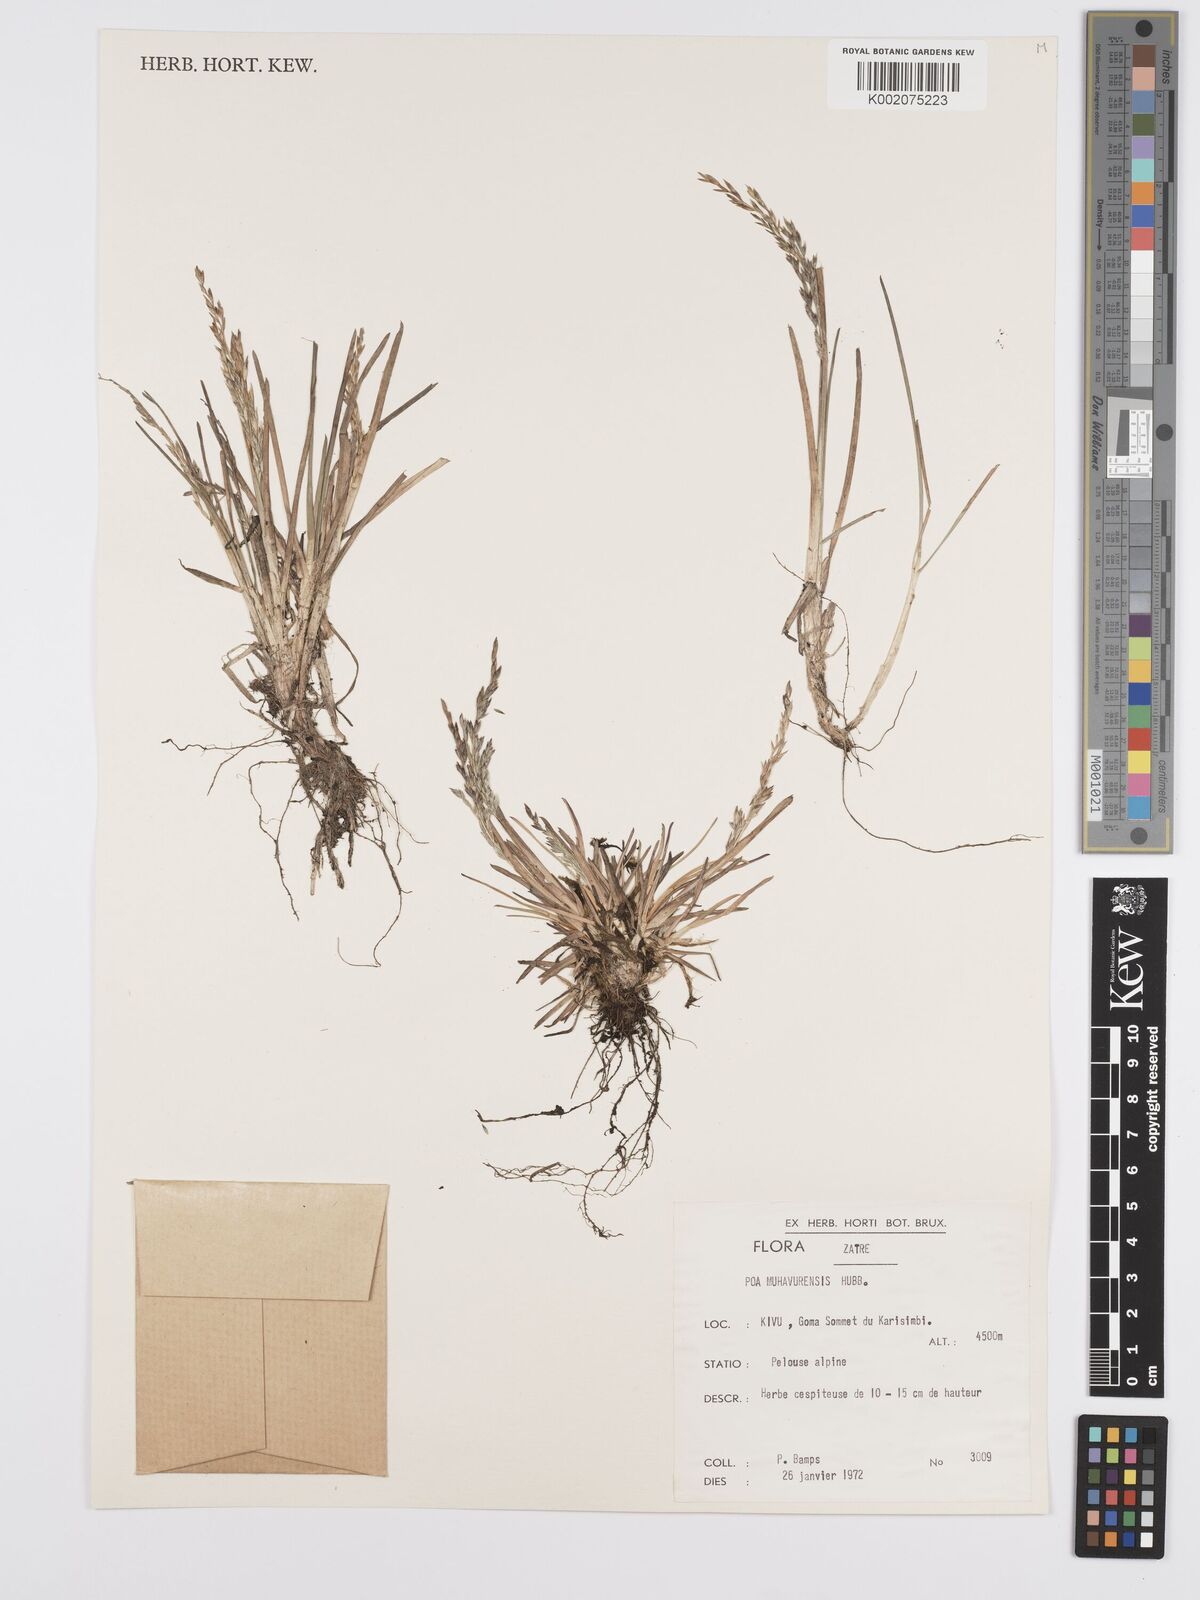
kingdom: Plantae
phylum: Tracheophyta
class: Liliopsida
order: Poales
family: Poaceae
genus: Poa
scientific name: Poa schimperiana
